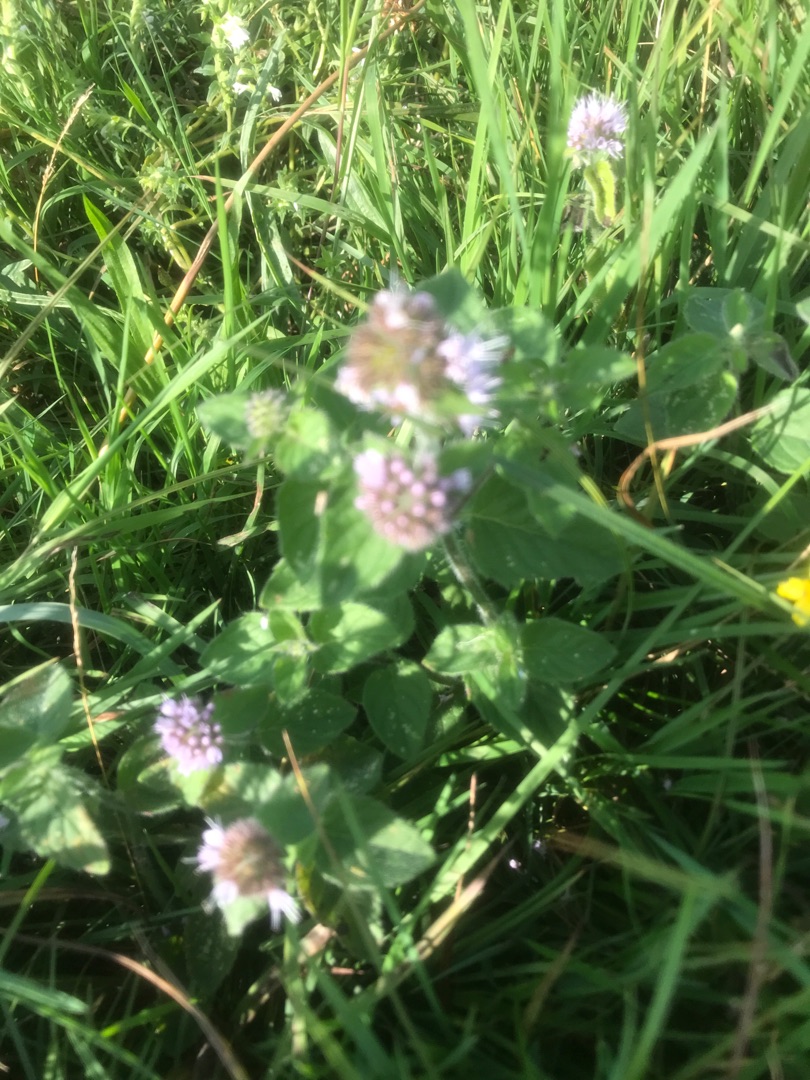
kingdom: Plantae
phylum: Tracheophyta
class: Magnoliopsida
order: Lamiales
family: Lamiaceae
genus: Mentha
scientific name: Mentha aquatica
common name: Vand-mynte
